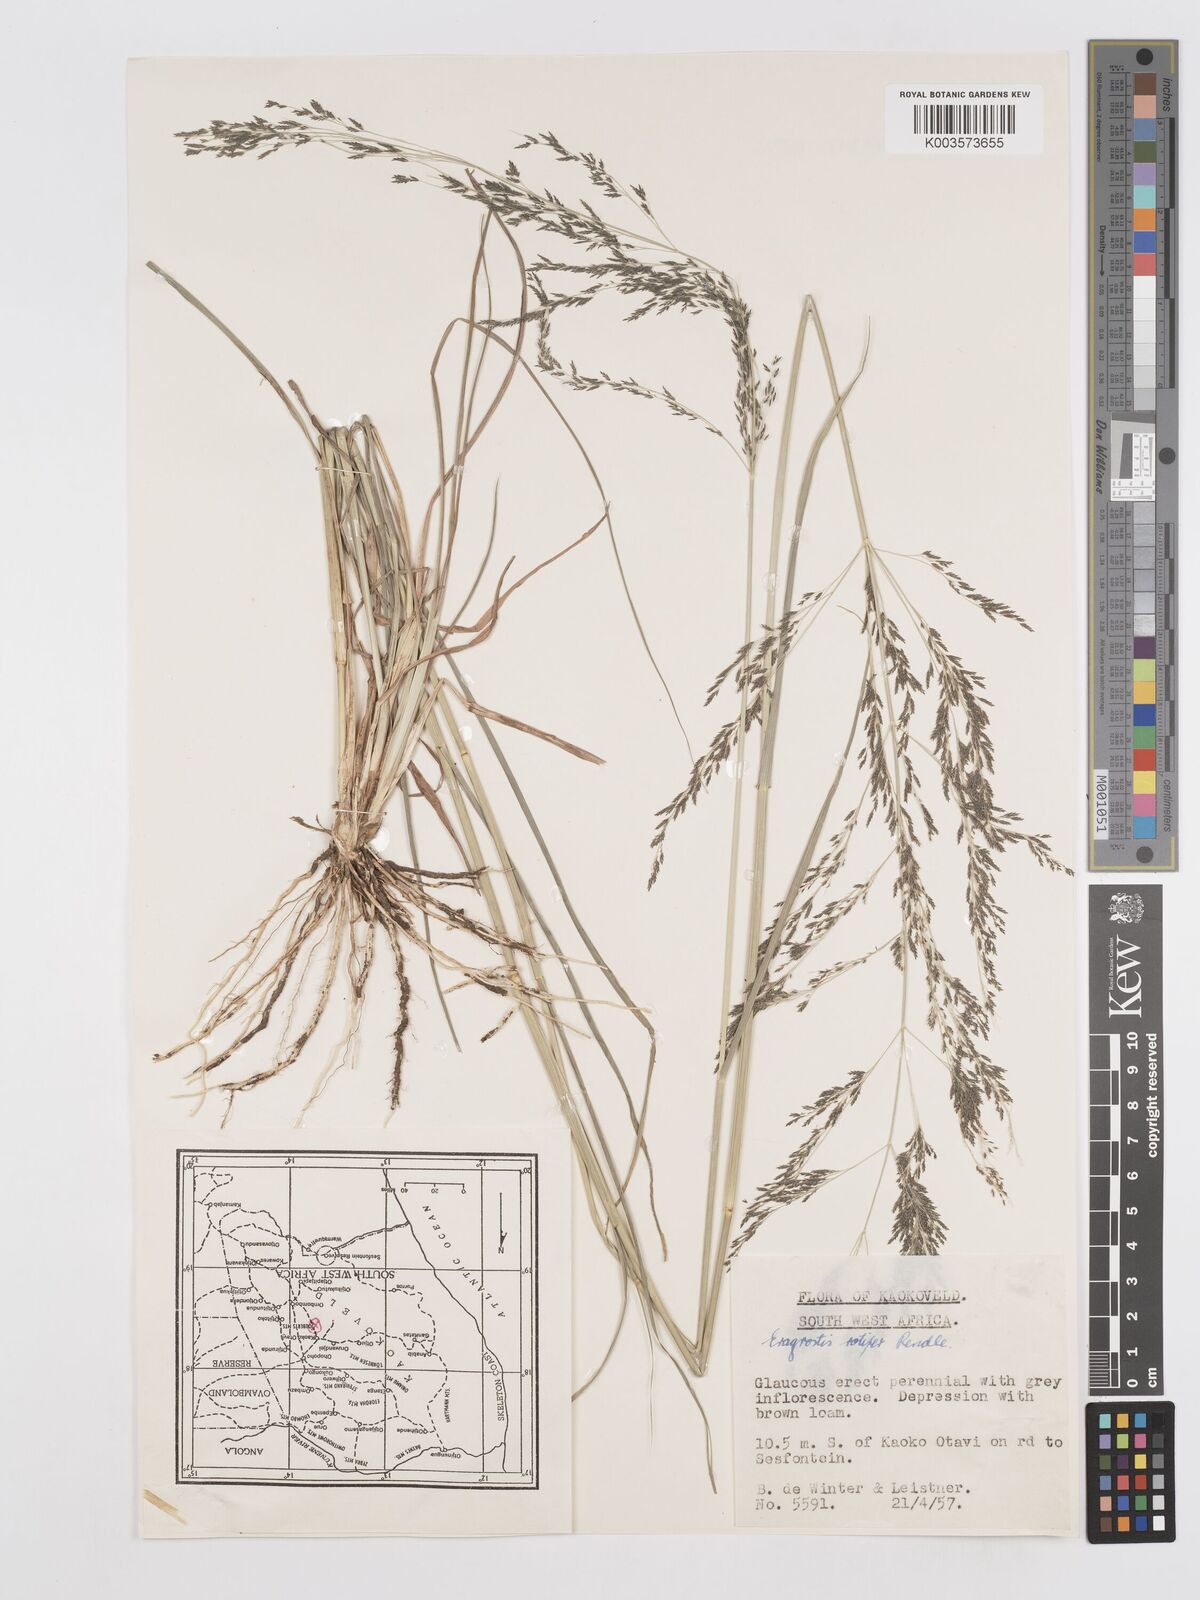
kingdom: Plantae
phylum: Tracheophyta
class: Liliopsida
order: Poales
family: Poaceae
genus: Eragrostis
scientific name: Eragrostis rotifer
